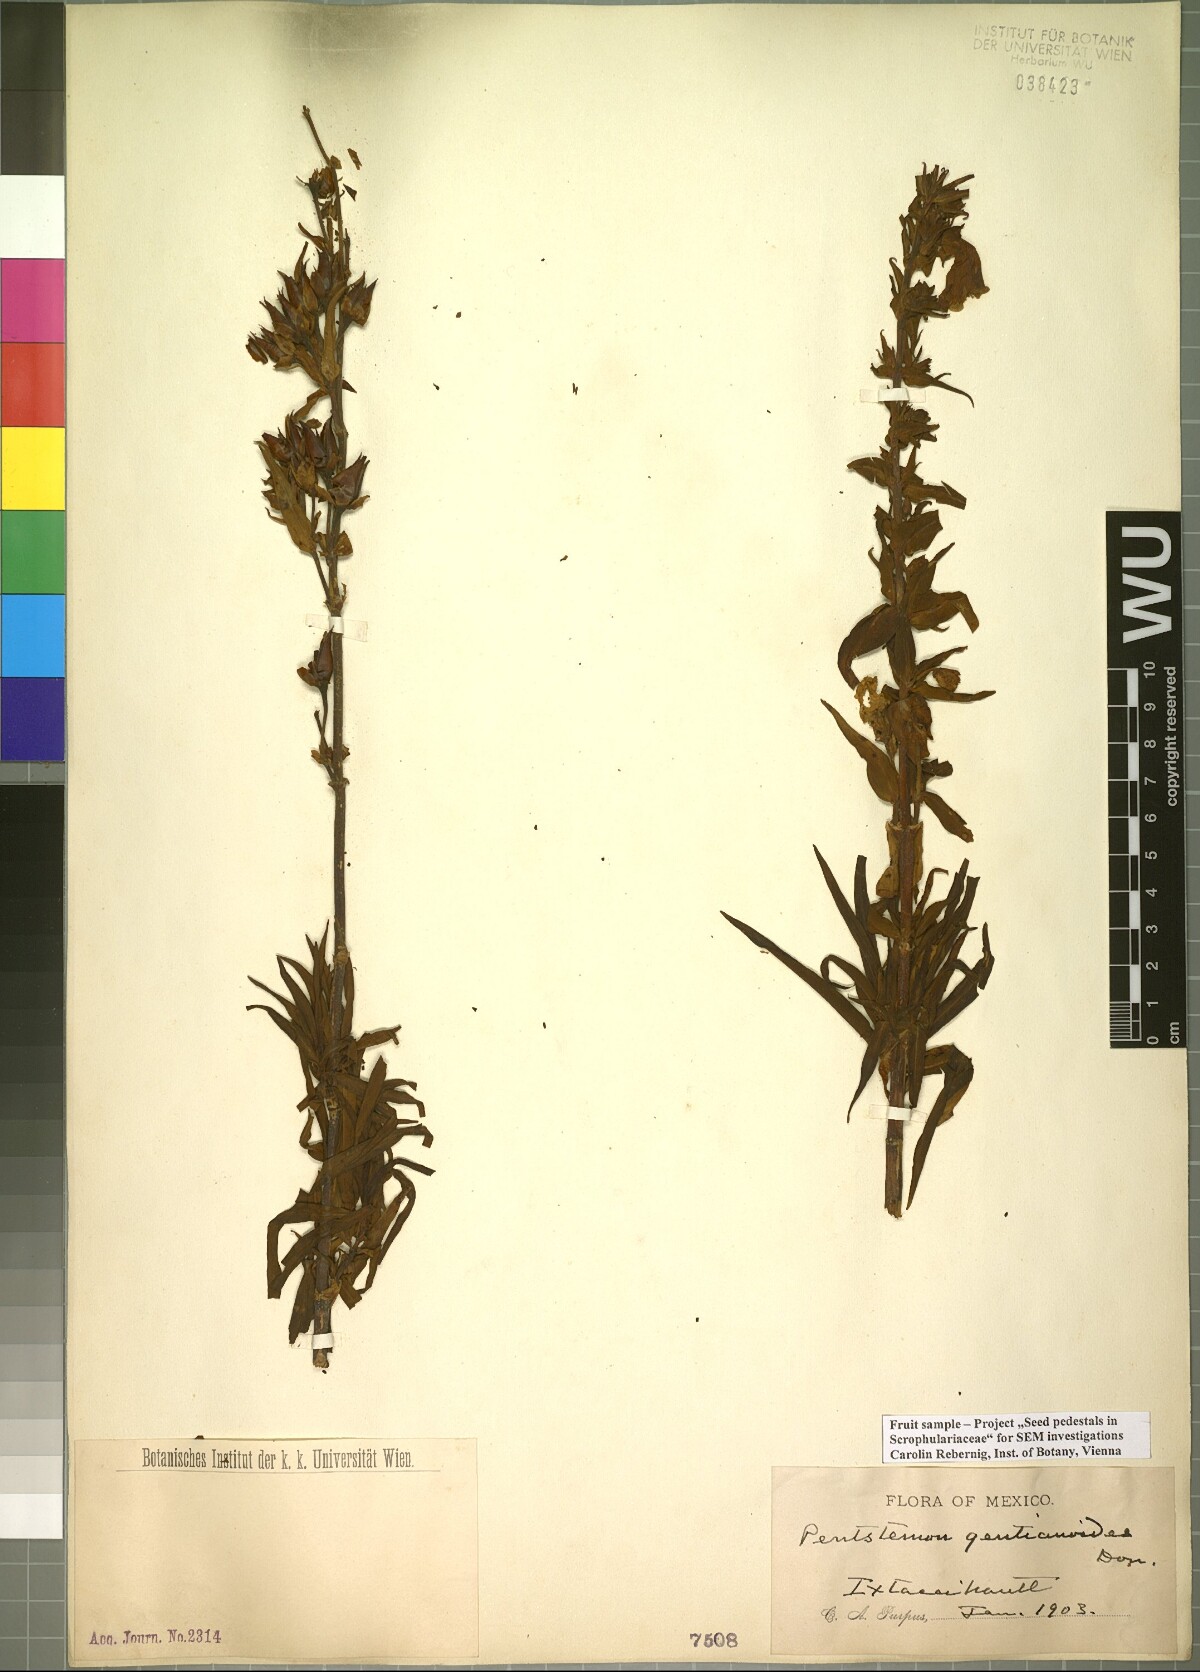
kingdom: Plantae
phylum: Tracheophyta
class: Magnoliopsida
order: Lamiales
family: Plantaginaceae
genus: Penstemon
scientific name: Penstemon gentianoides
